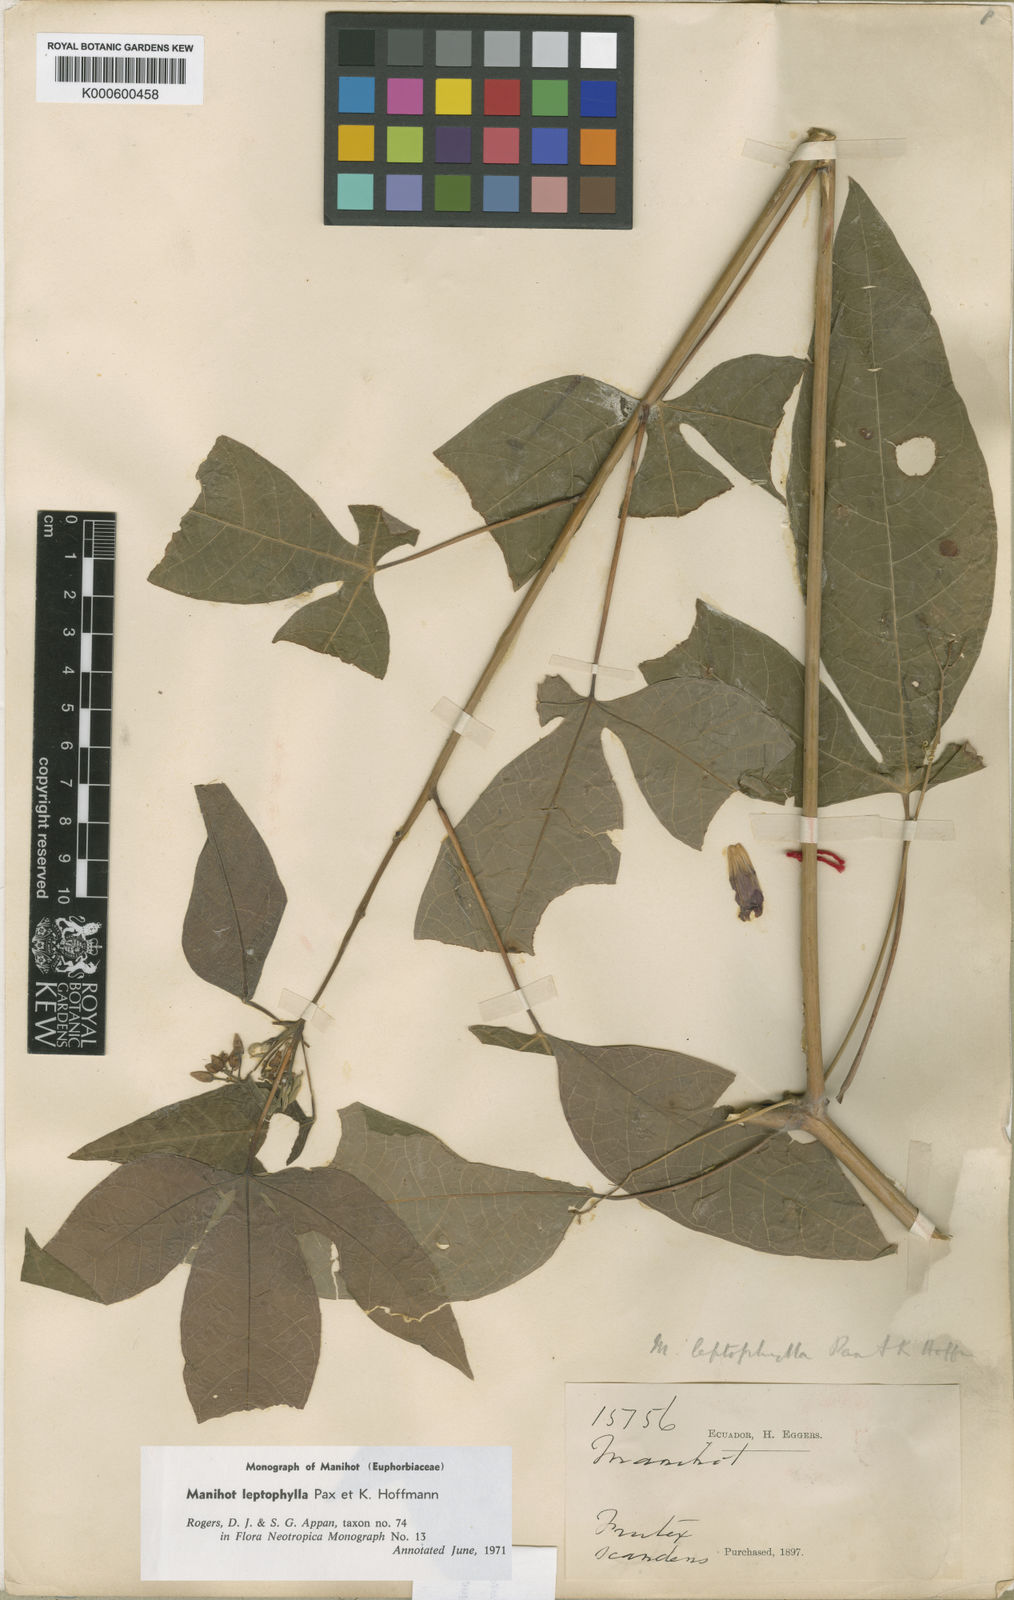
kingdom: Plantae
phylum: Tracheophyta
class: Magnoliopsida
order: Malpighiales
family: Euphorbiaceae
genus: Manihot
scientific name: Manihot leptophylla
